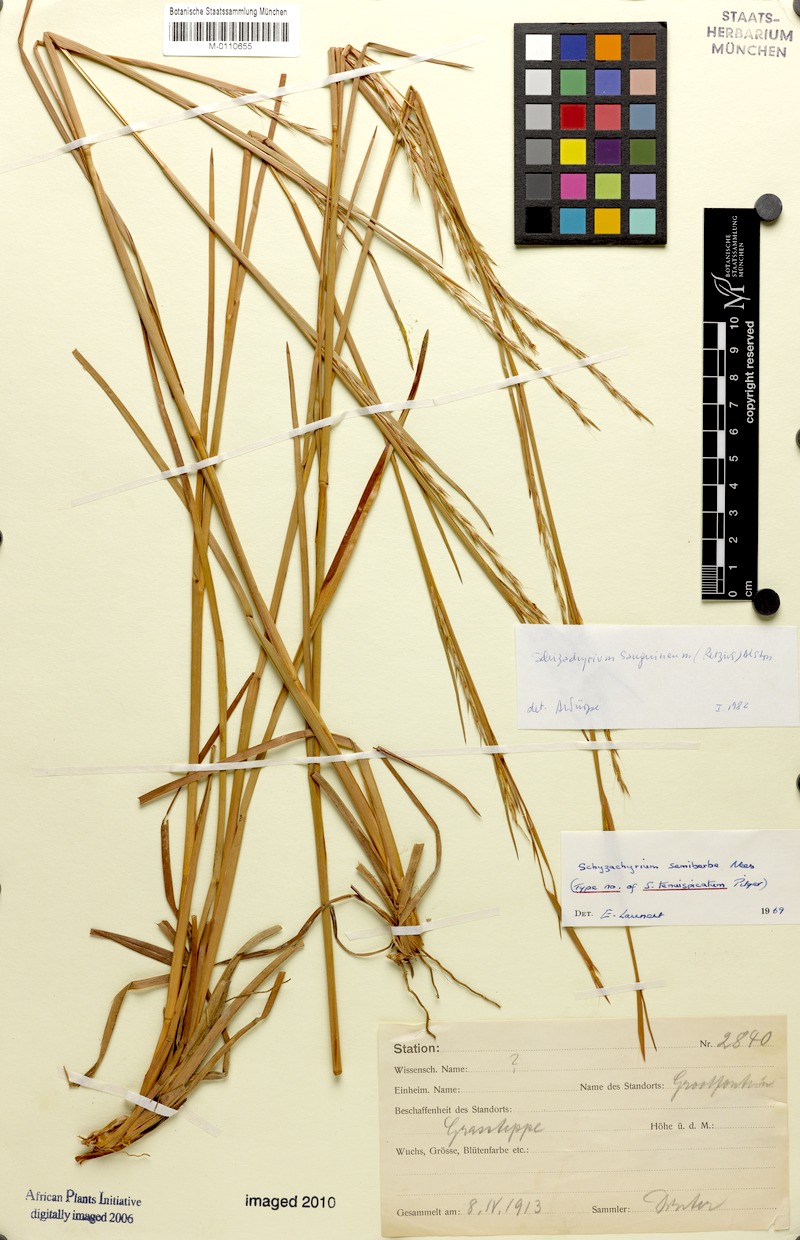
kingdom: Plantae
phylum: Tracheophyta
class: Liliopsida
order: Poales
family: Poaceae
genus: Schizachyrium
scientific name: Schizachyrium sanguineum
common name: Crimson bluestem
